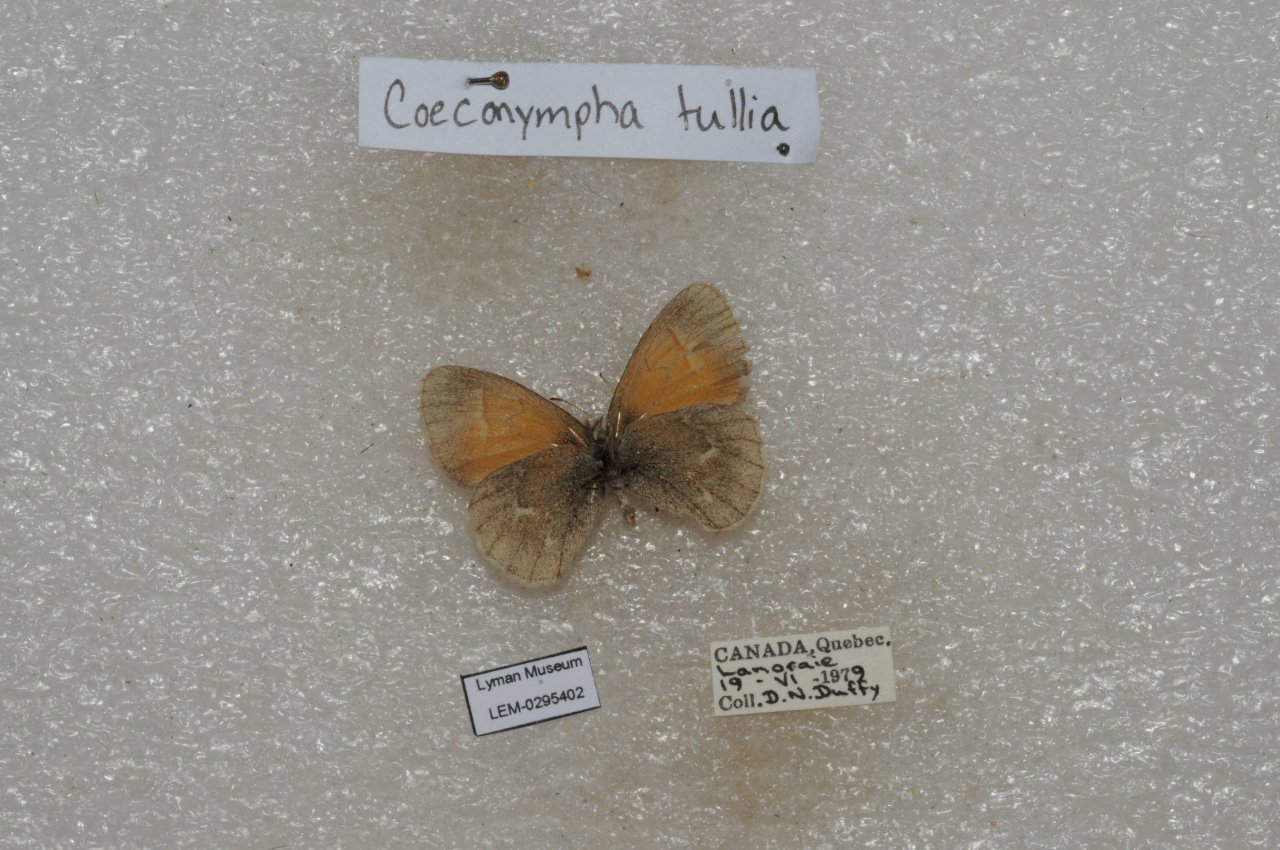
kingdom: Animalia
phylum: Arthropoda
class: Insecta
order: Lepidoptera
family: Nymphalidae
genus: Coenonympha
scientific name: Coenonympha tullia
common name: Large Heath
